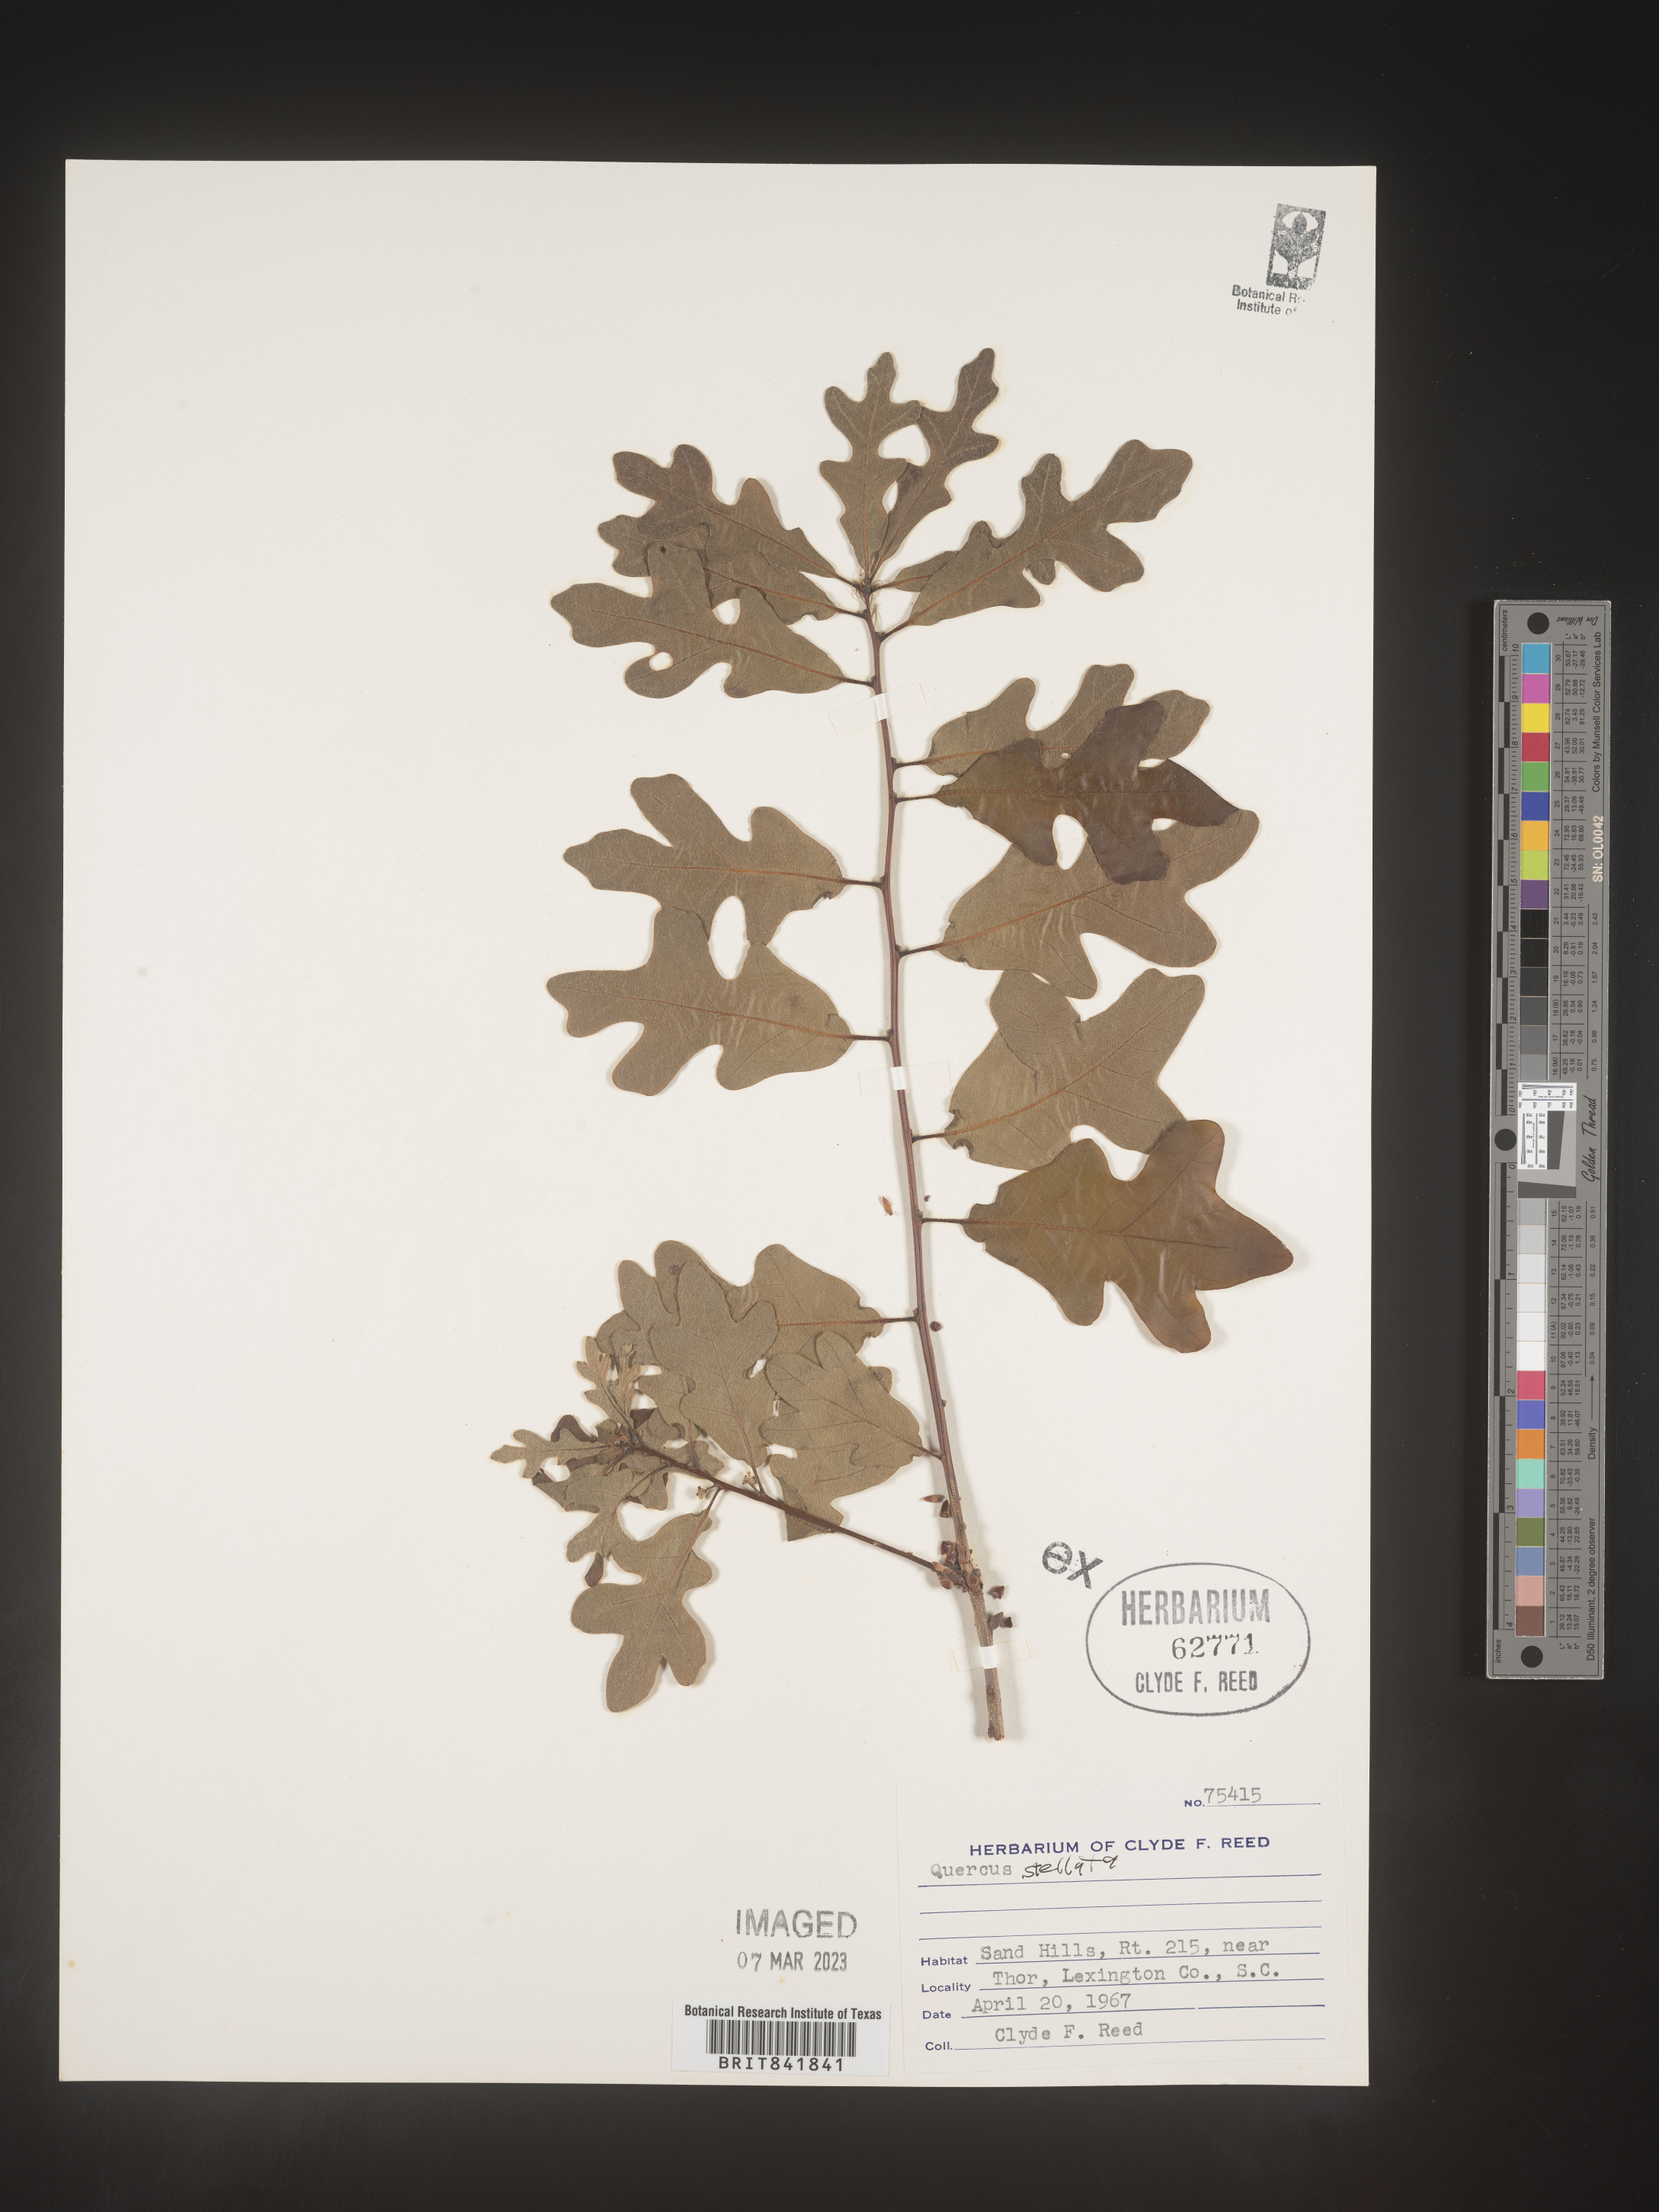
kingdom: Plantae
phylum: Tracheophyta
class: Magnoliopsida
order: Fagales
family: Fagaceae
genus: Quercus
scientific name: Quercus stellata
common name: Post oak
